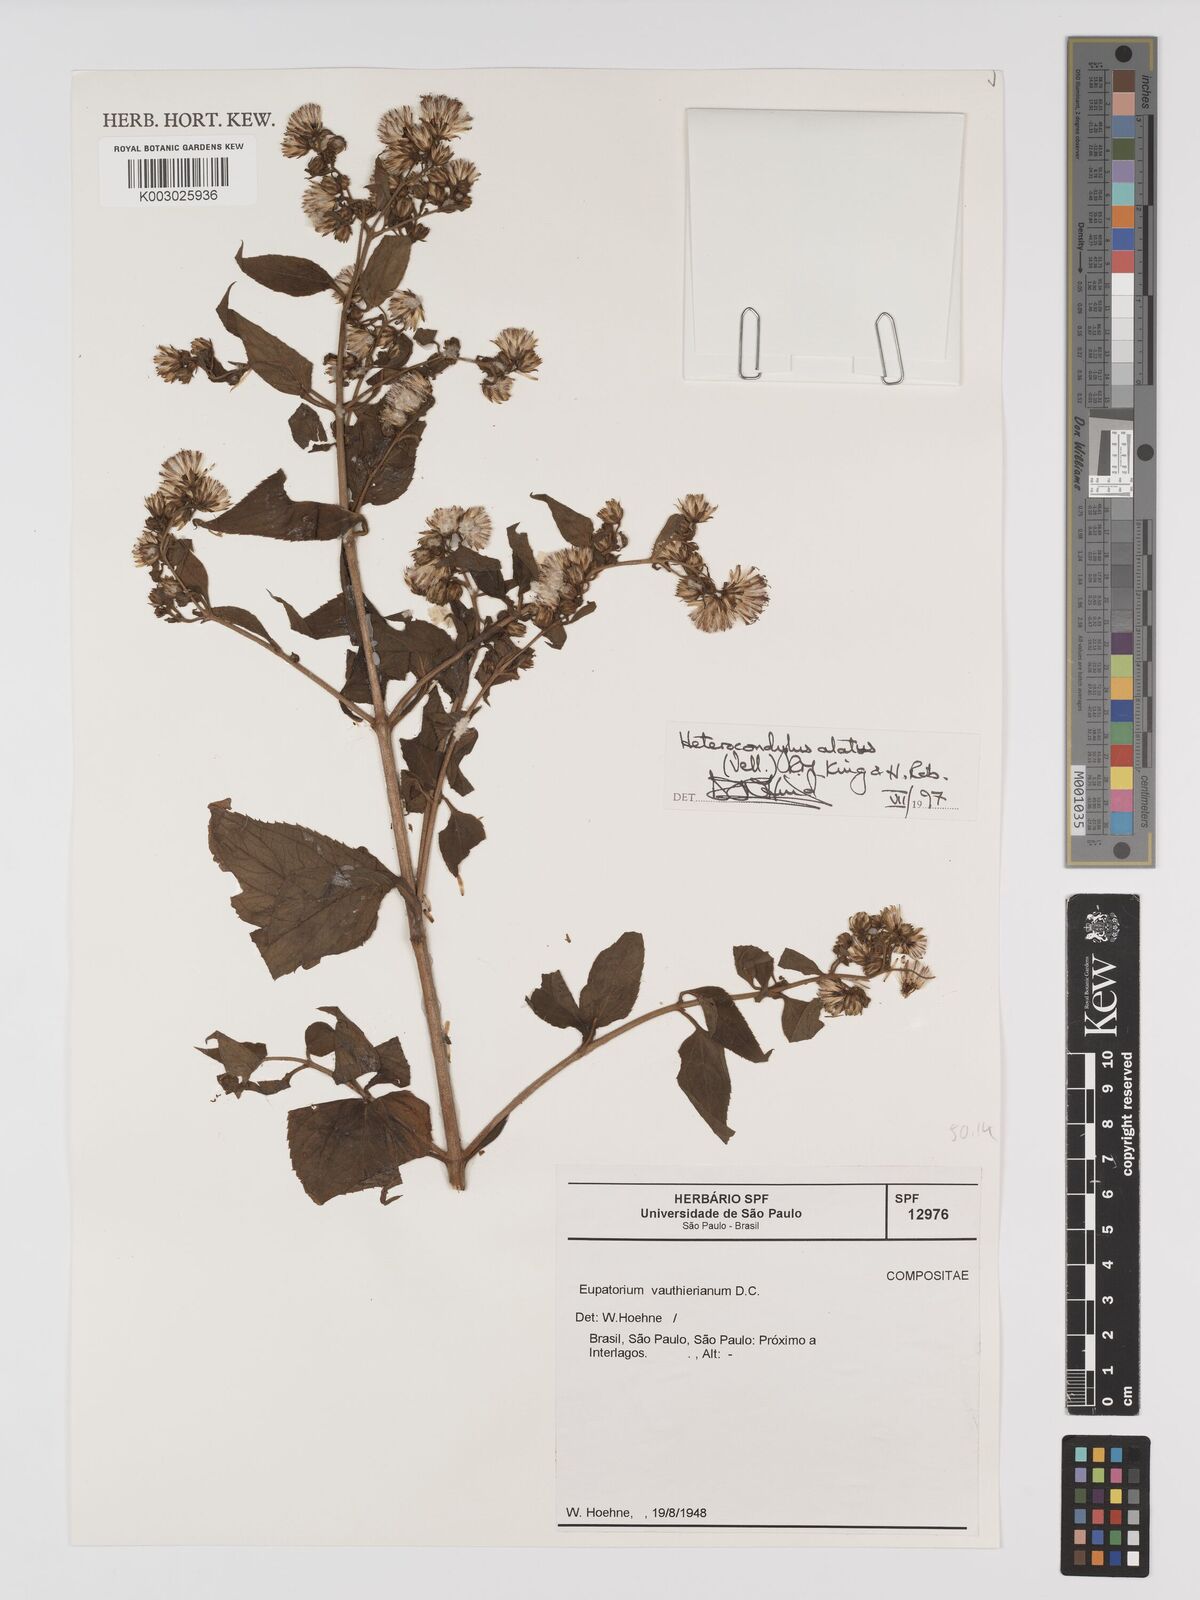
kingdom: Plantae
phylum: Tracheophyta
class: Magnoliopsida
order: Asterales
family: Asteraceae
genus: Heterocondylus
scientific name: Heterocondylus alatus
